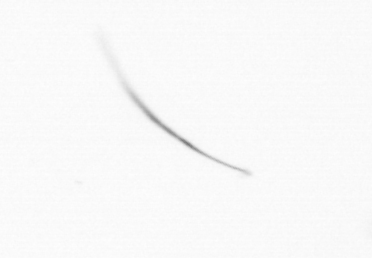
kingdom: Chromista
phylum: Ochrophyta
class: Bacillariophyceae
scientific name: Bacillariophyceae
